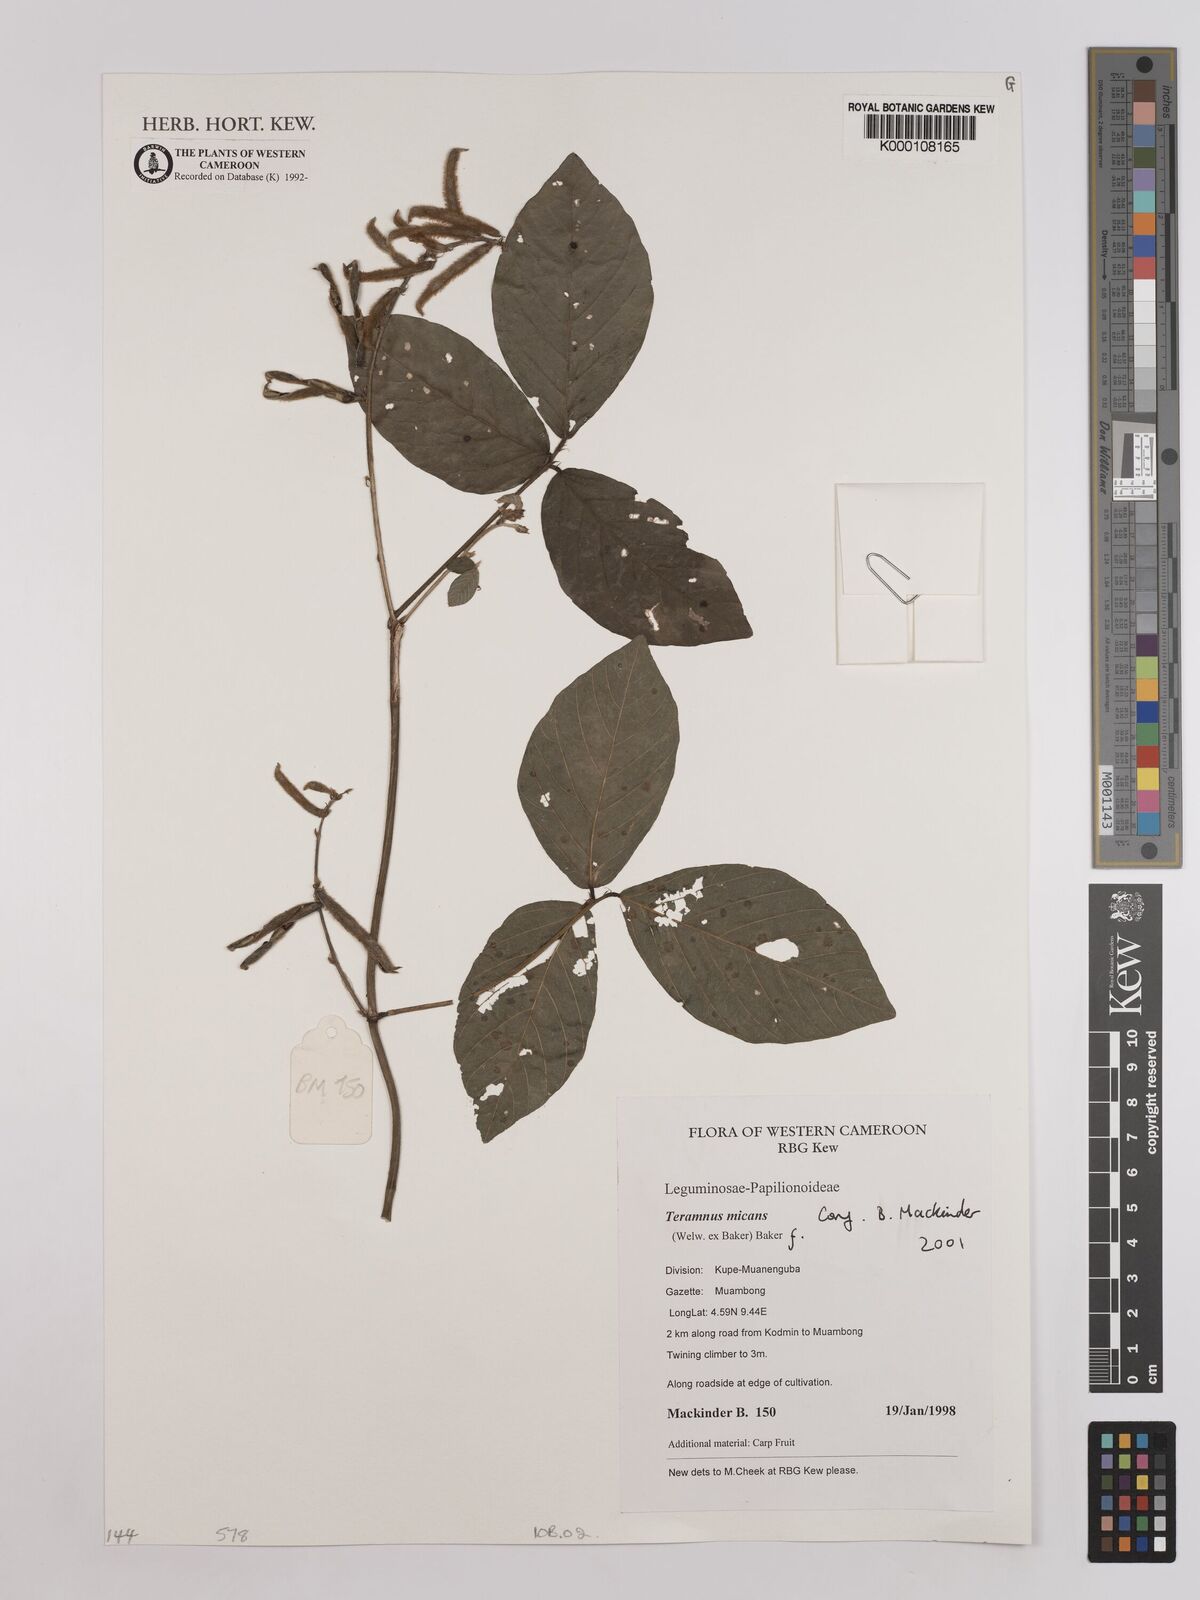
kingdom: Plantae
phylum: Tracheophyta
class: Magnoliopsida
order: Fabales
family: Fabaceae
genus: Teramnus
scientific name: Teramnus micans
